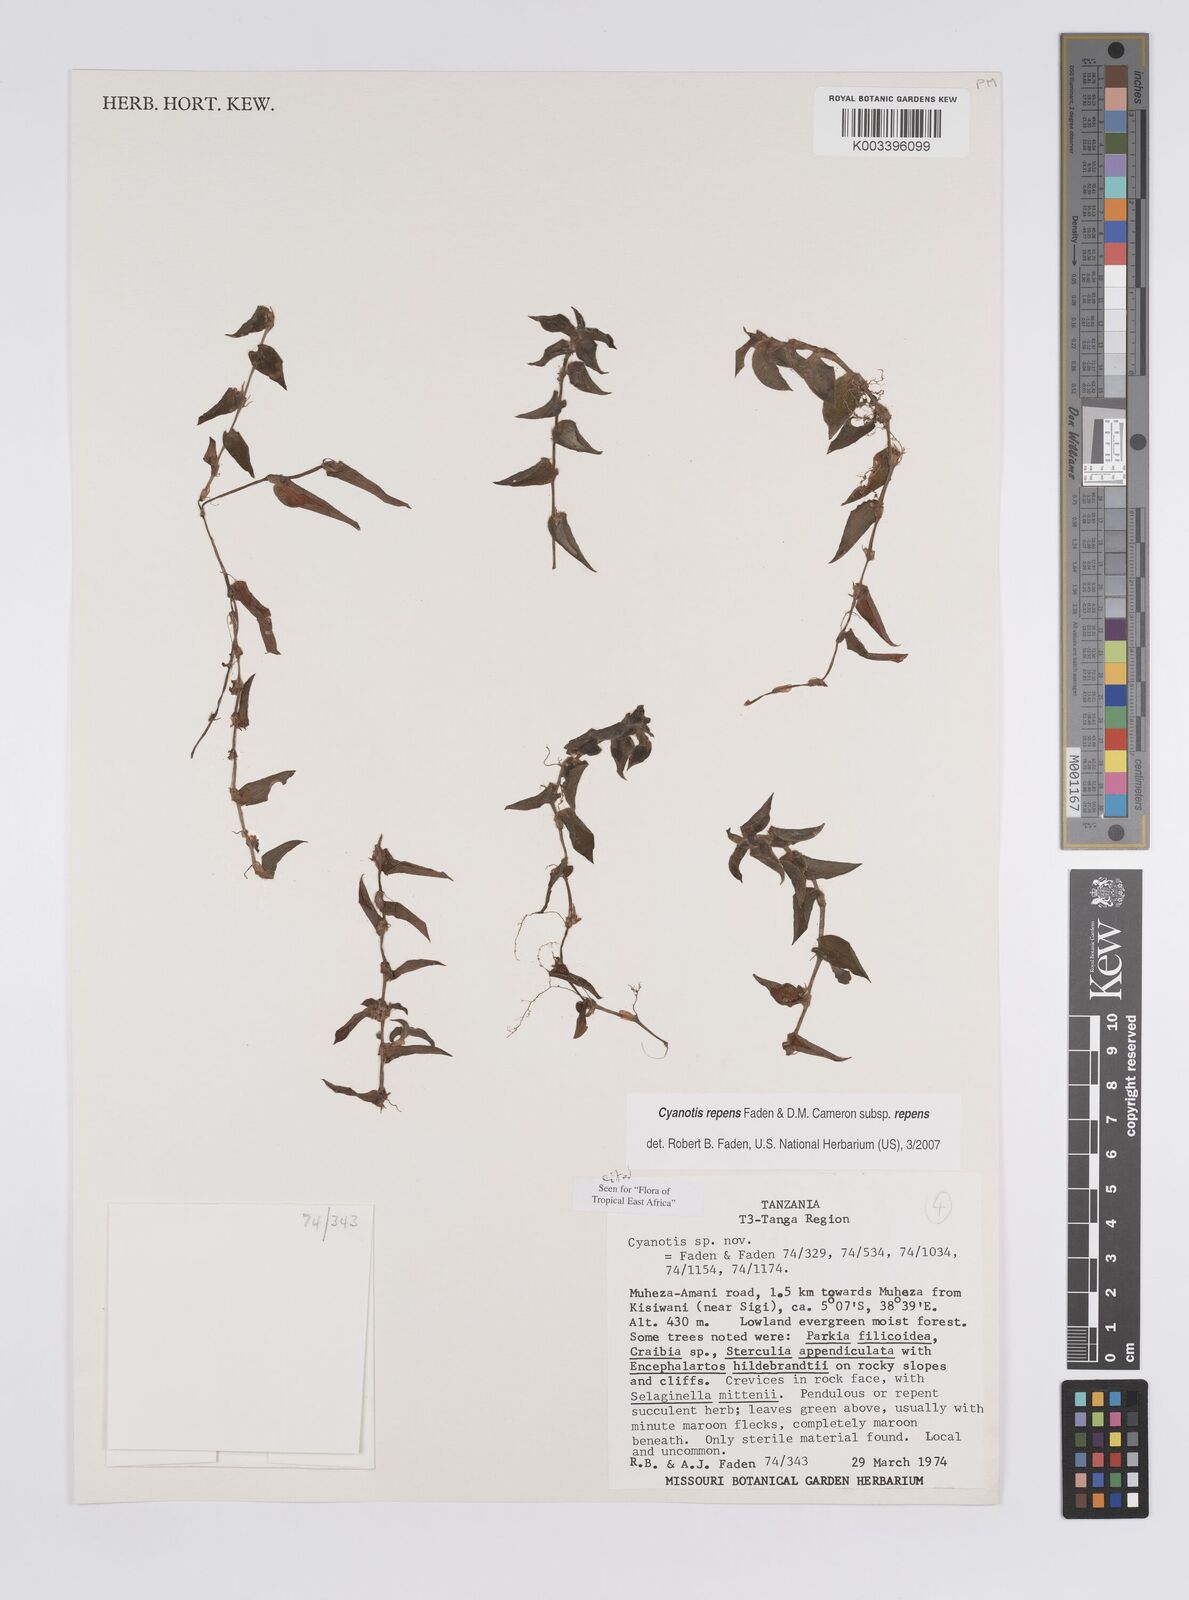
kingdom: Plantae
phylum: Tracheophyta
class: Liliopsida
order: Commelinales
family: Commelinaceae
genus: Cyanotis
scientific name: Cyanotis repens
